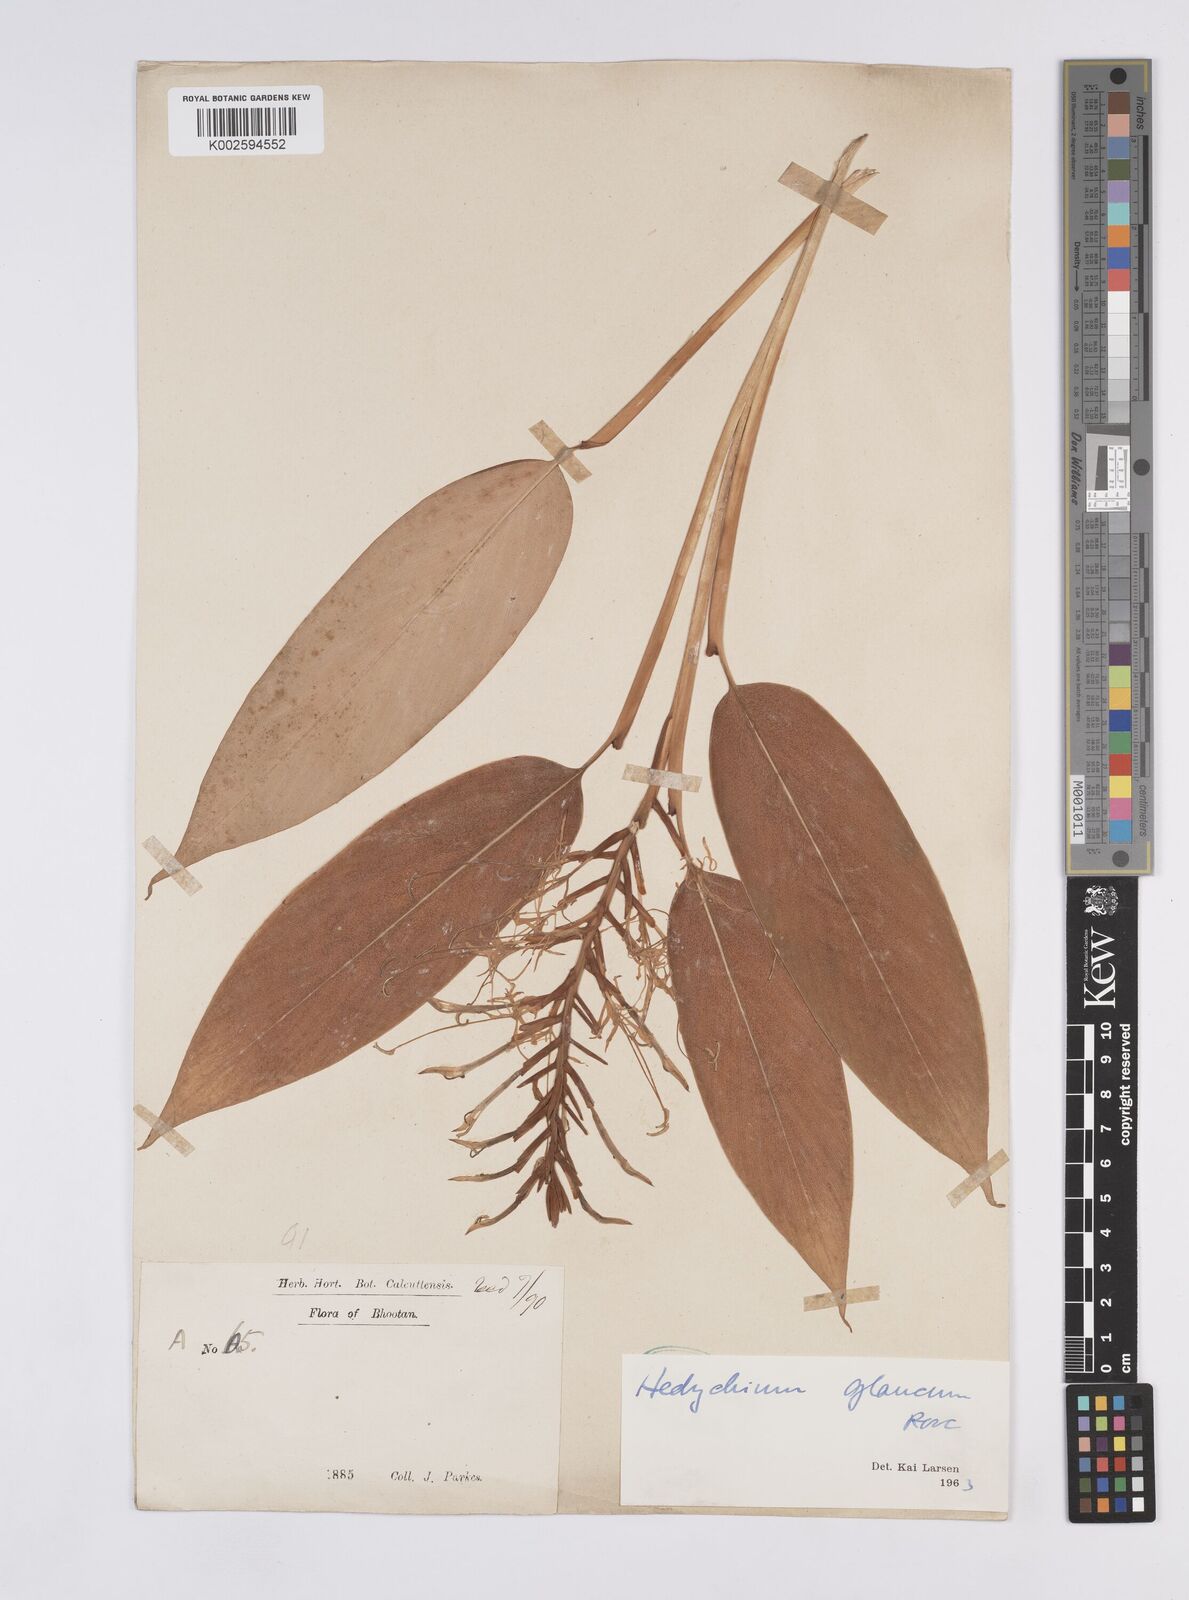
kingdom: Plantae
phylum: Tracheophyta
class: Liliopsida
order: Zingiberales
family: Zingiberaceae
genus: Hedychium
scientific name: Hedychium glaucum
